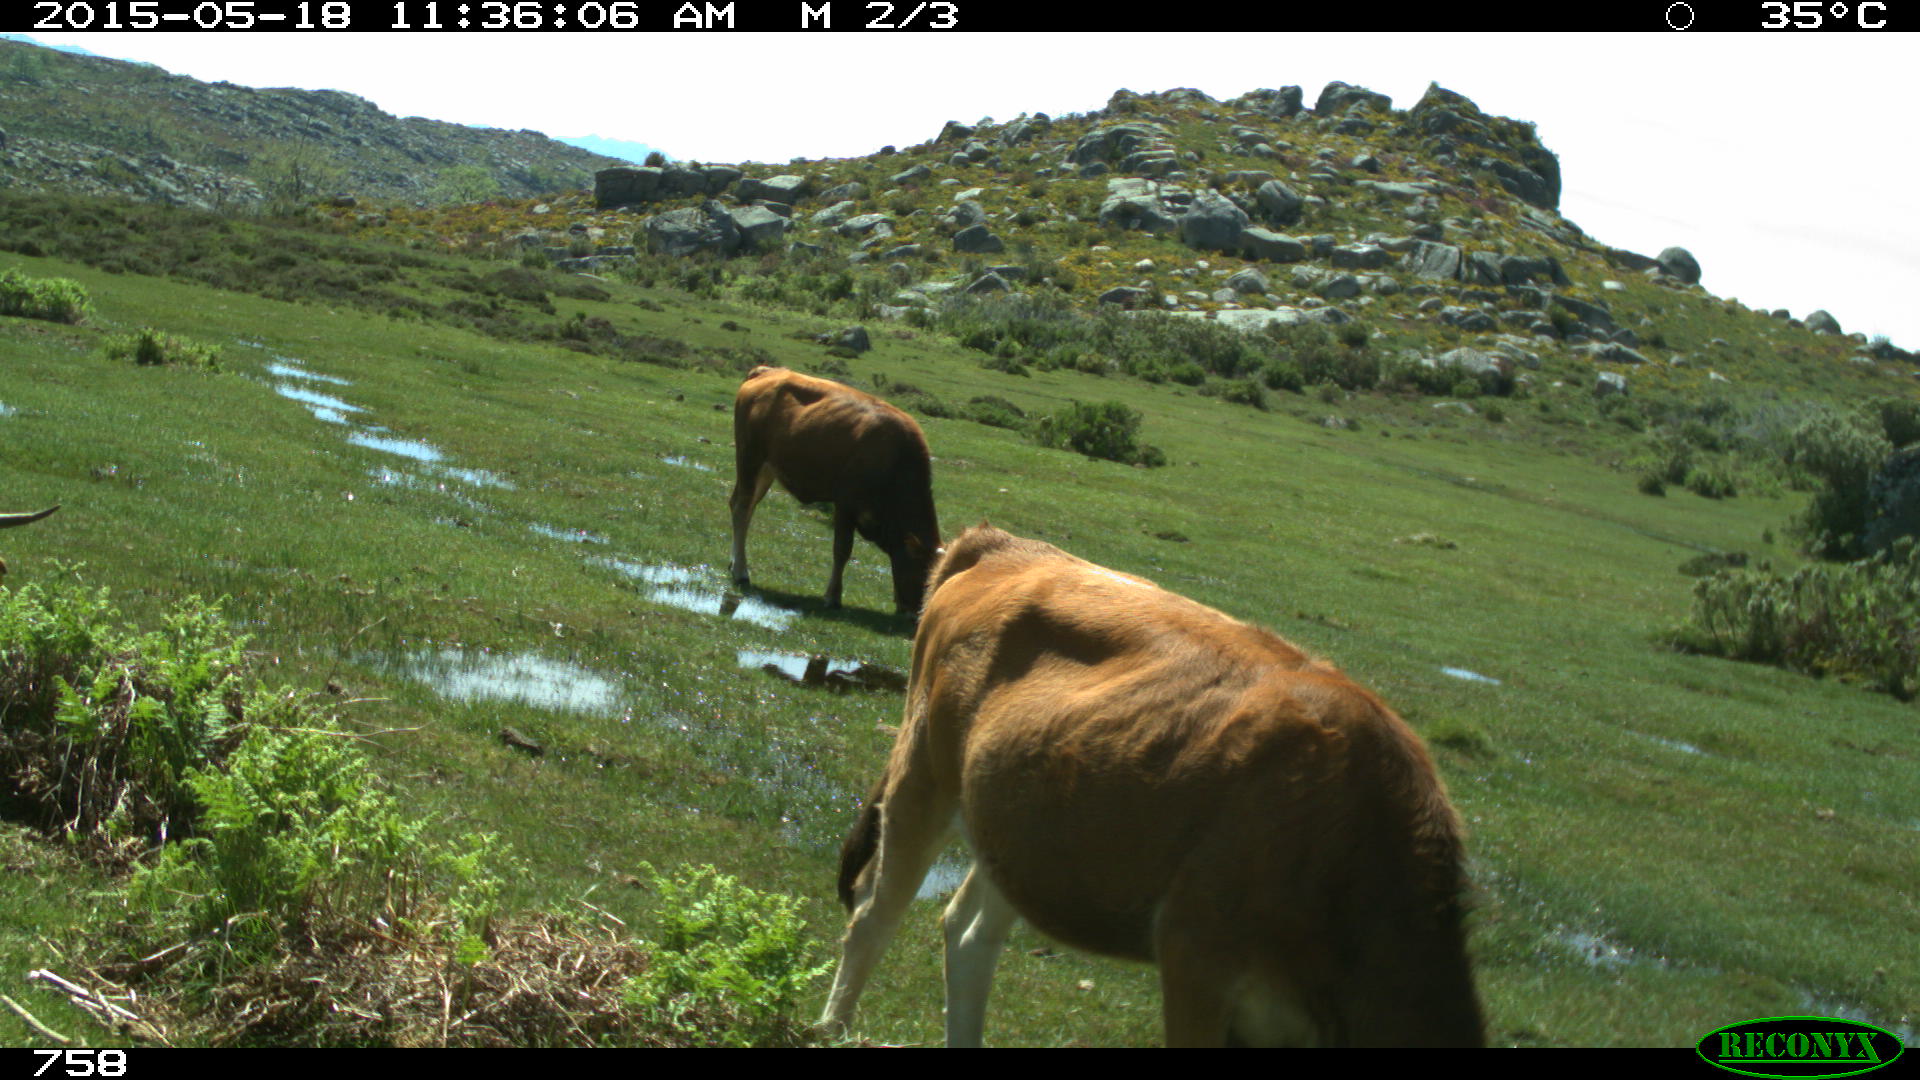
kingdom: Animalia
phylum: Chordata
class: Mammalia
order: Artiodactyla
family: Bovidae
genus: Bos
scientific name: Bos taurus
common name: Domesticated cattle
